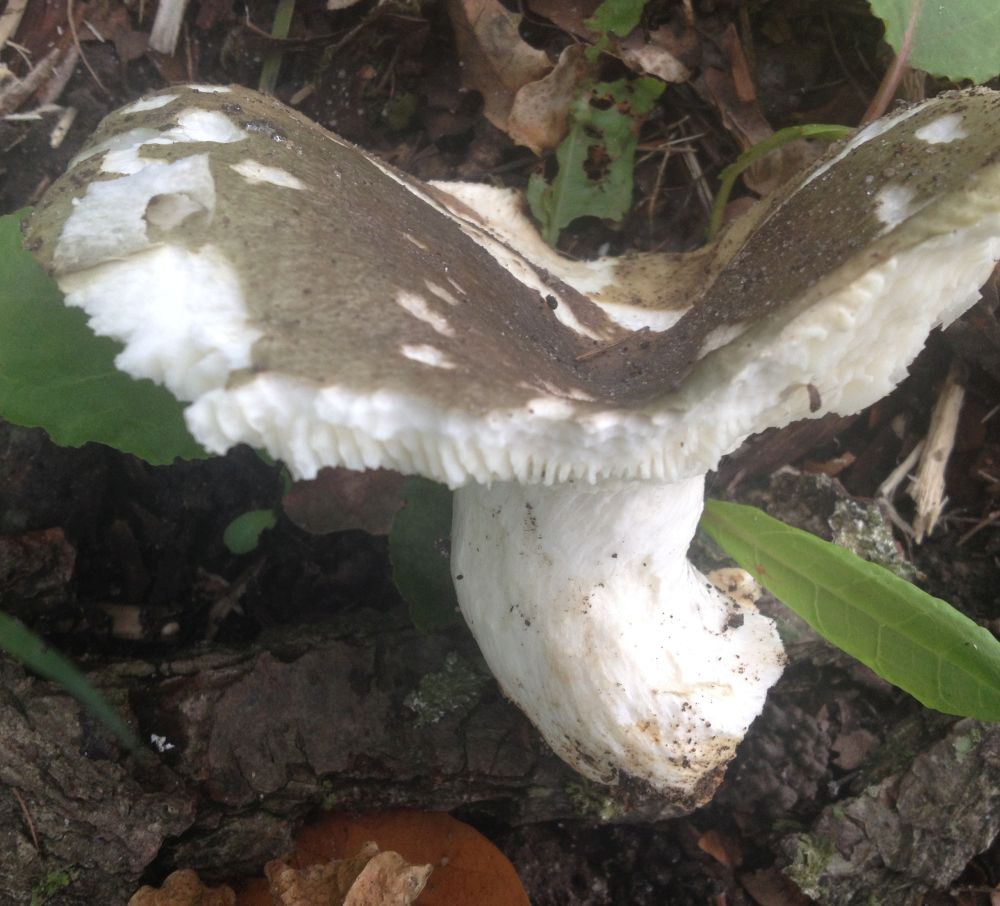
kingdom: Fungi
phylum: Basidiomycota
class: Agaricomycetes
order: Russulales
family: Russulaceae
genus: Russula
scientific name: Russula
